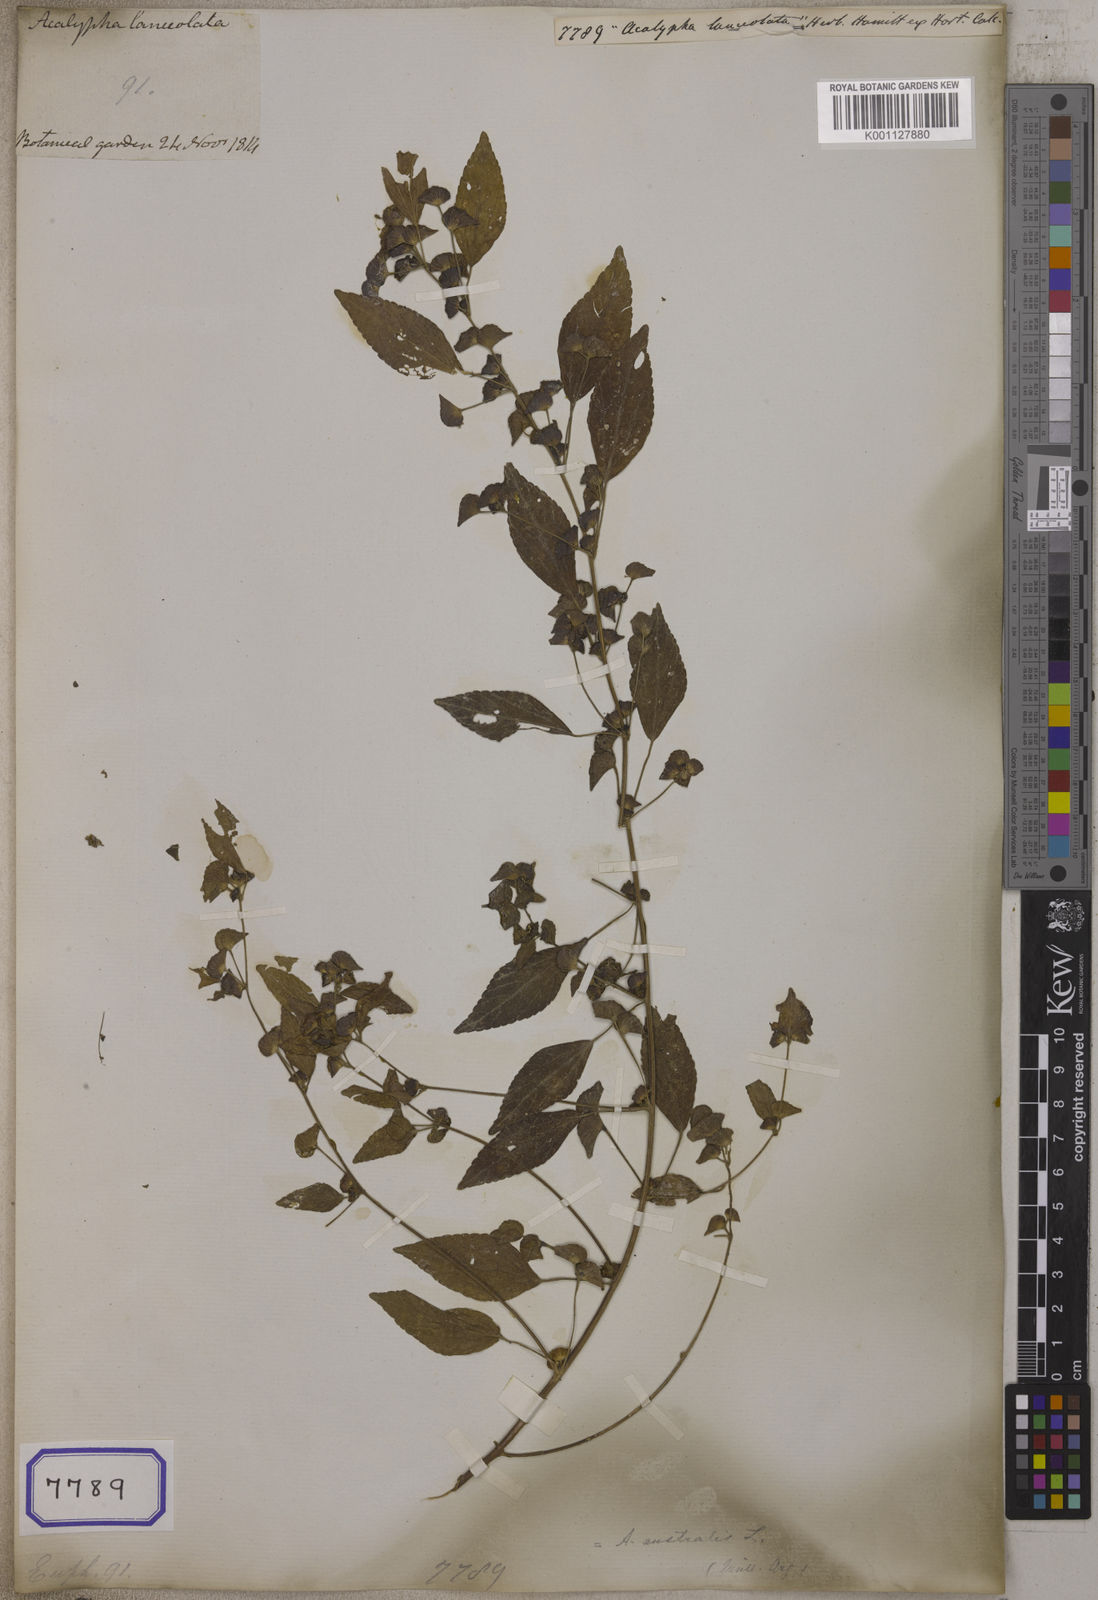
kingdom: Plantae
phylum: Tracheophyta
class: Magnoliopsida
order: Malpighiales
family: Euphorbiaceae
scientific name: Euphorbiaceae
